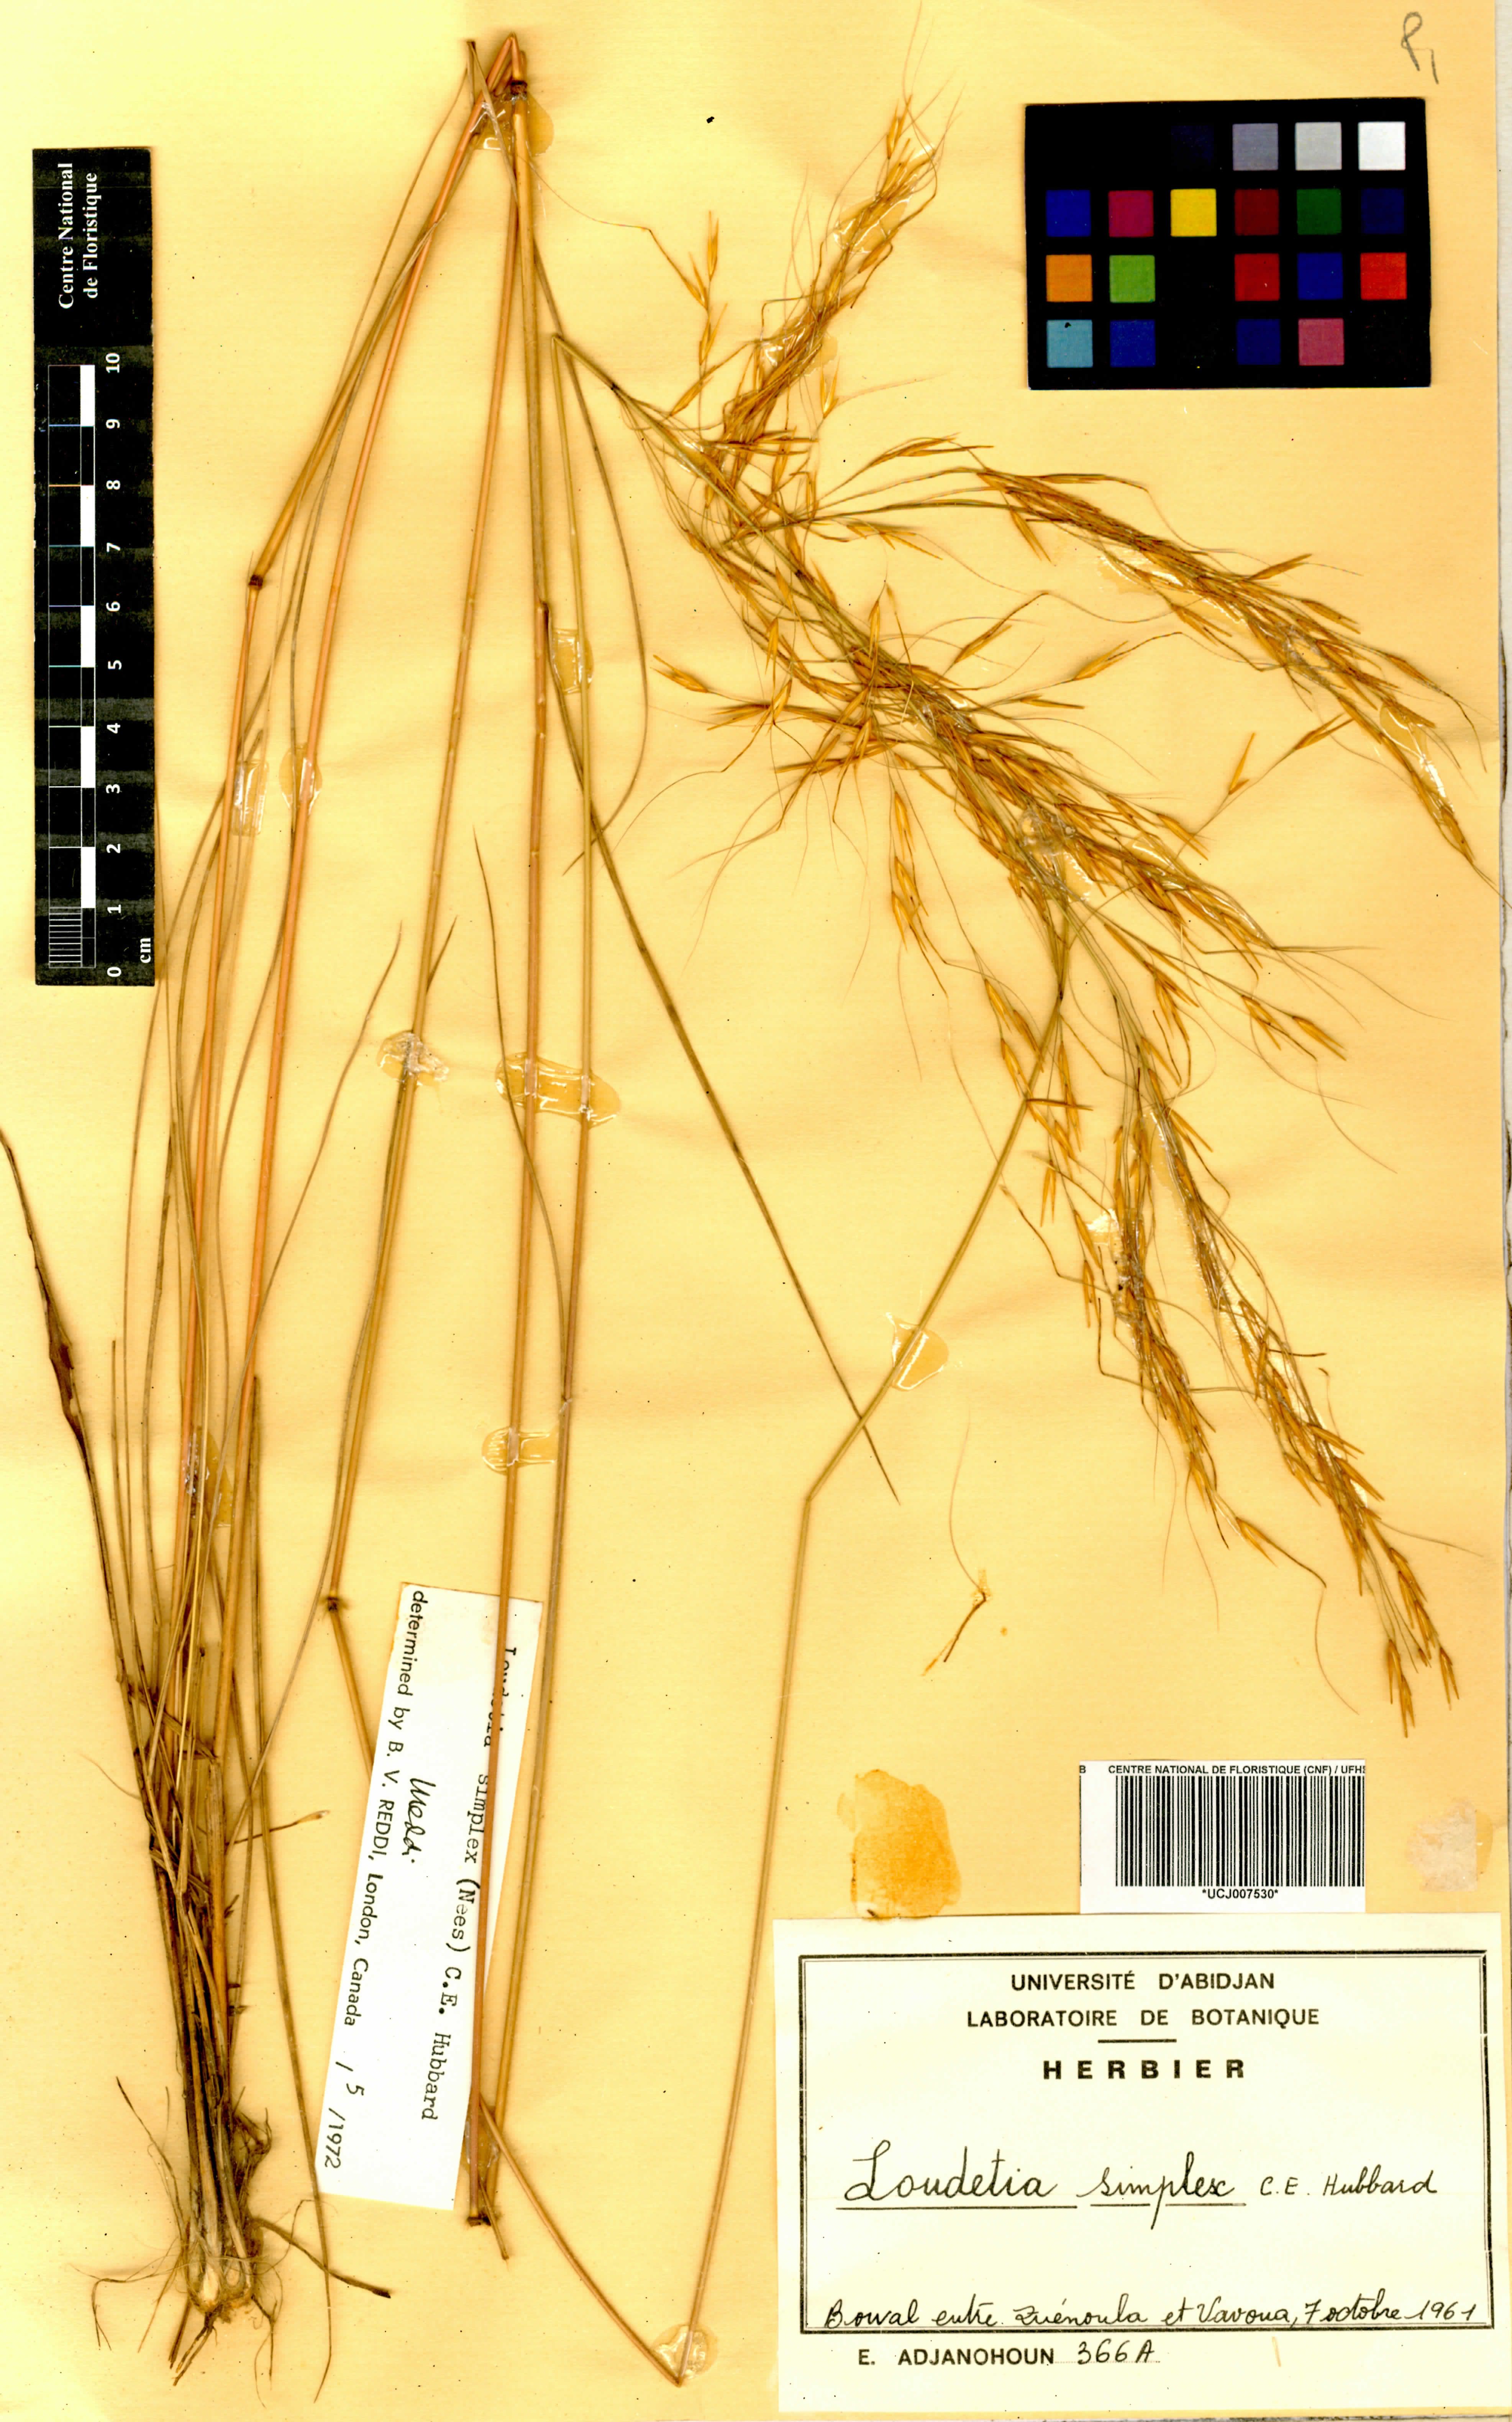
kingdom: Plantae
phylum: Tracheophyta
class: Liliopsida
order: Poales
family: Poaceae
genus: Loudetia
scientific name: Loudetia simplex
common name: Common russet grass
